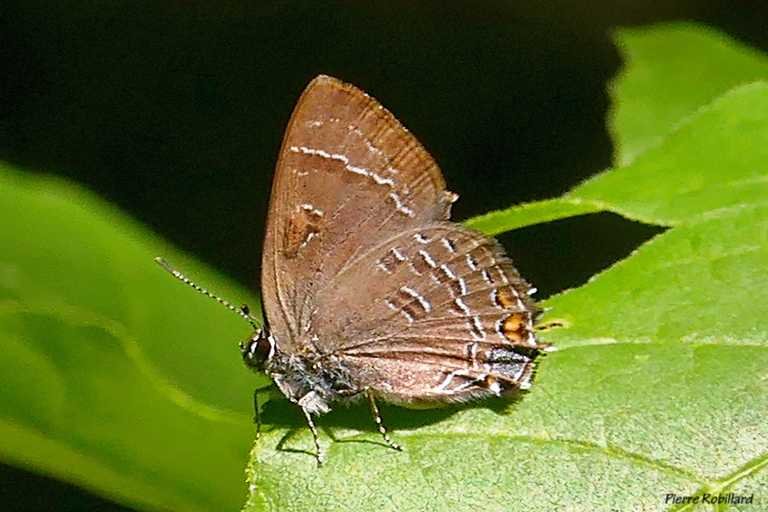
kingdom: Animalia
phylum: Arthropoda
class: Insecta
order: Lepidoptera
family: Lycaenidae
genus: Satyrium
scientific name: Satyrium calanus
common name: Banded Hairstreak
